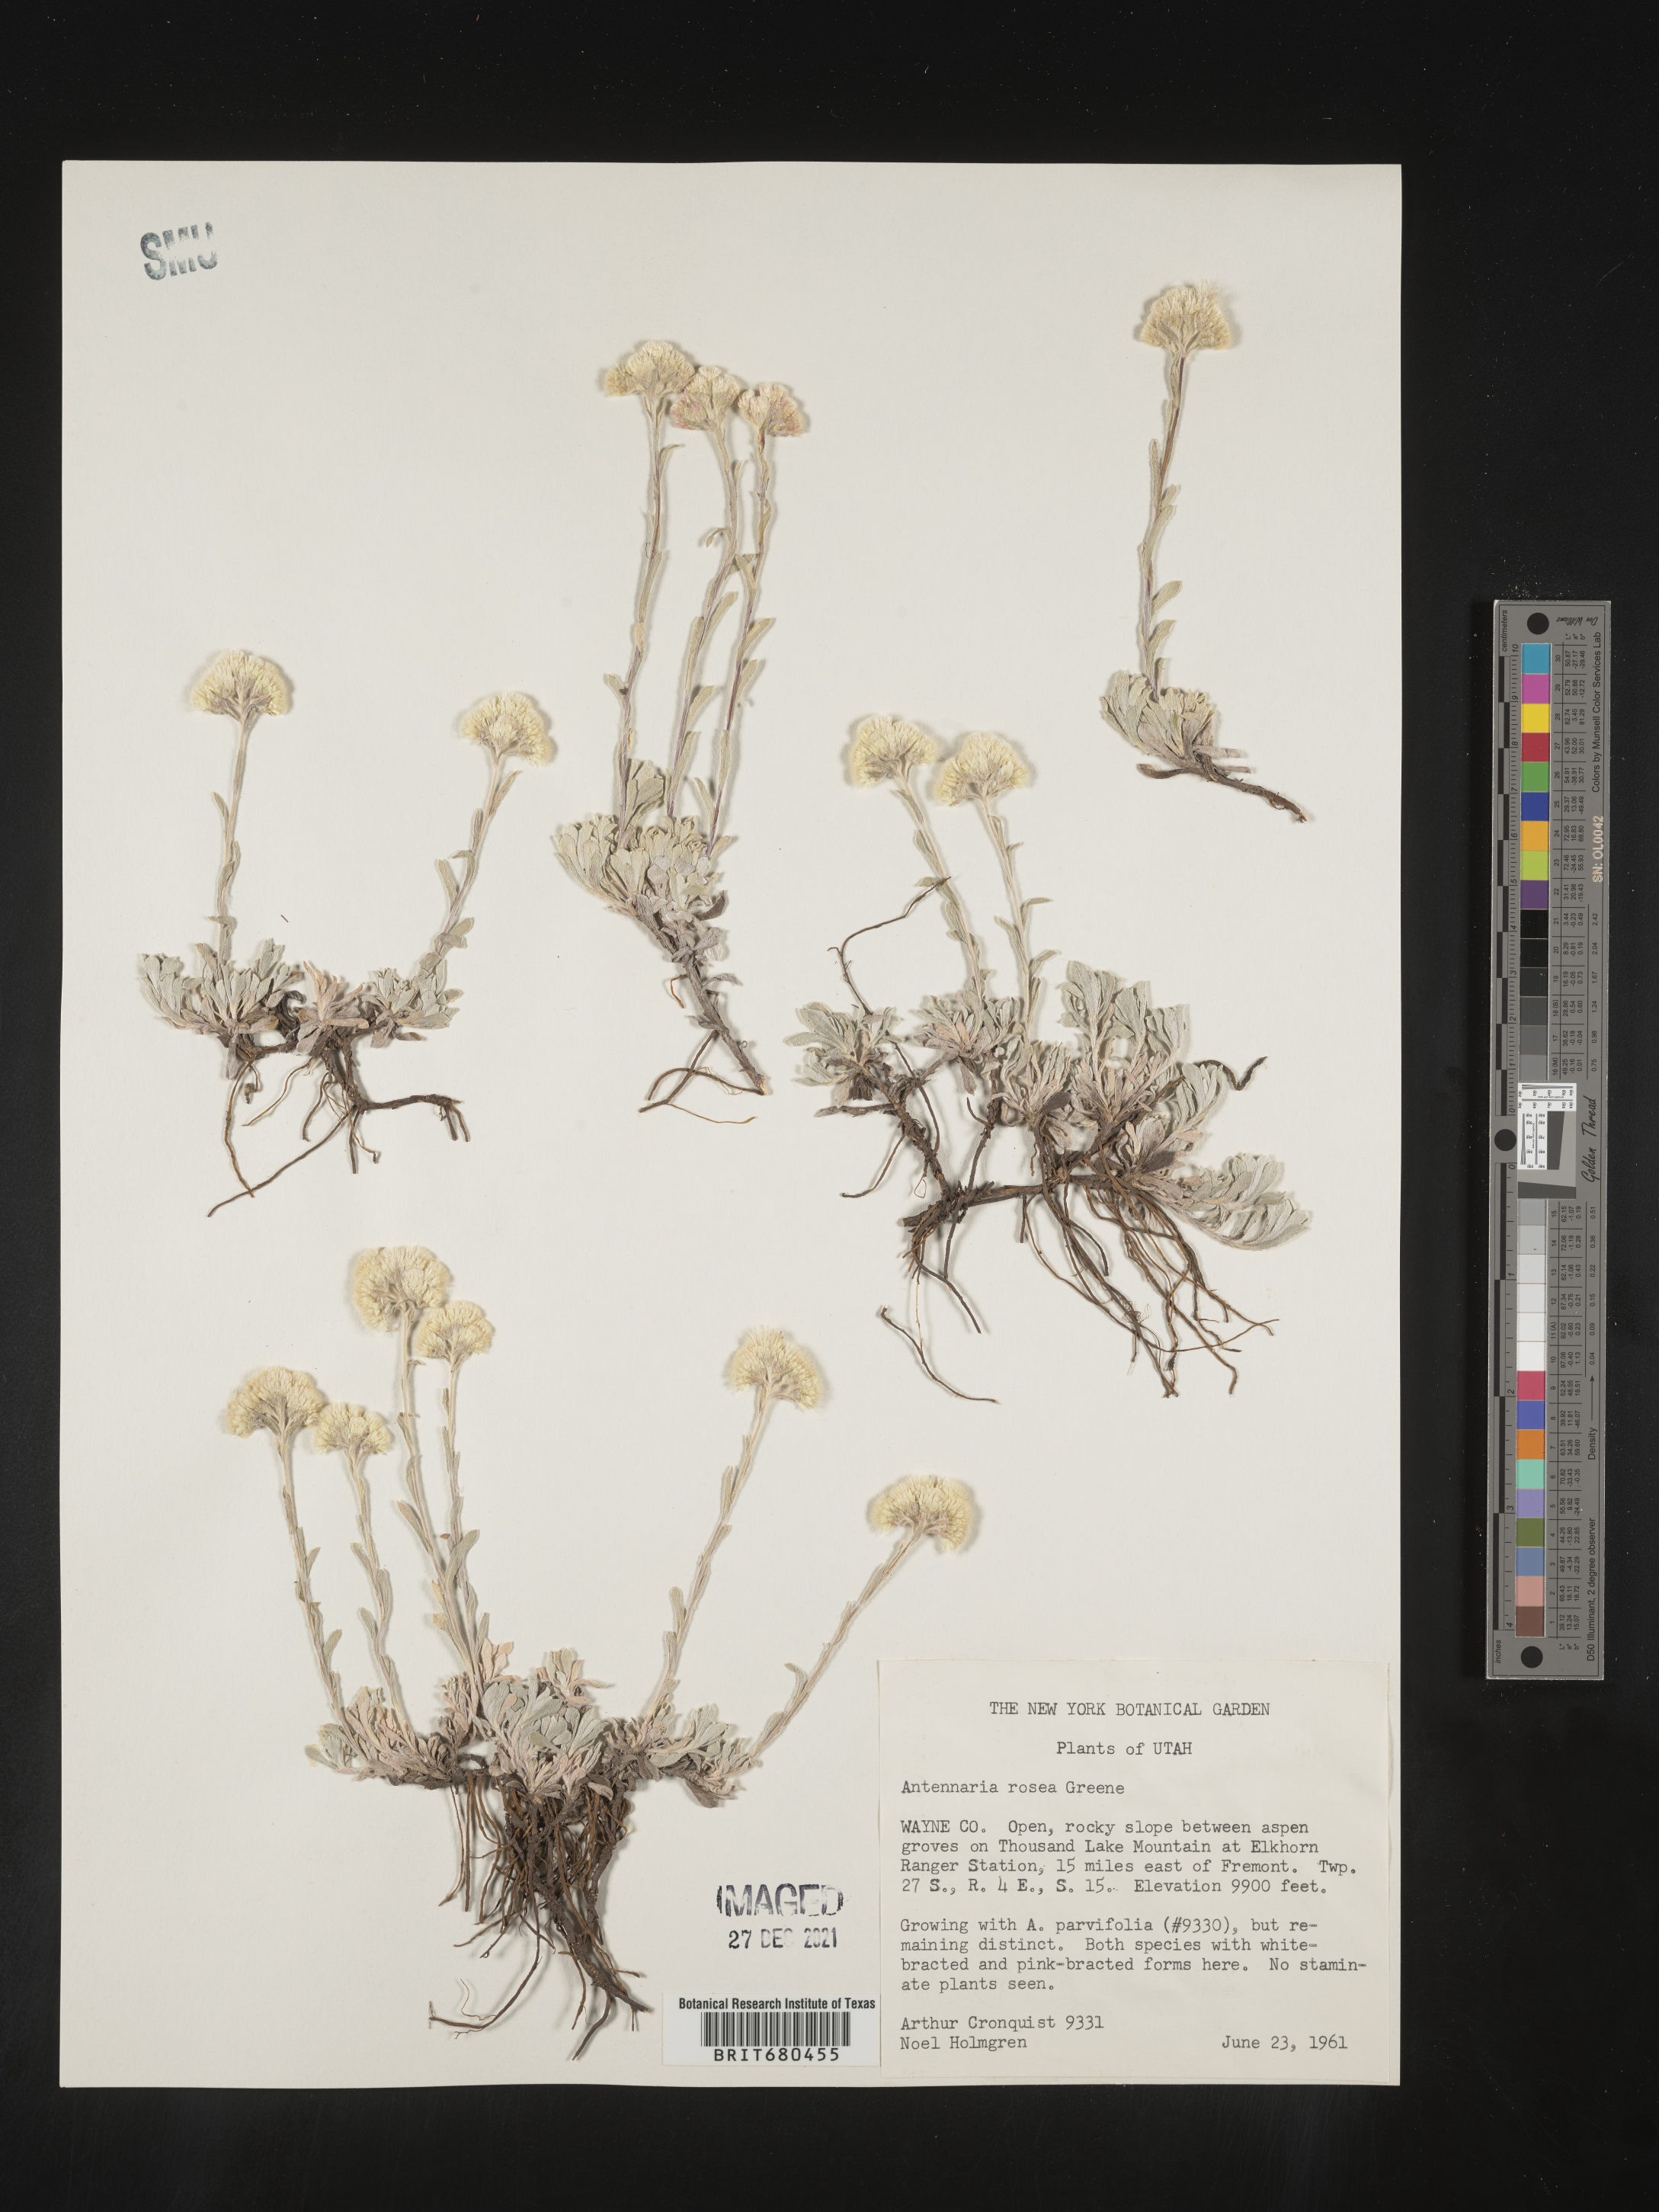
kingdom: Plantae
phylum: Tracheophyta
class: Magnoliopsida
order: Asterales
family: Asteraceae
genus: Antennaria
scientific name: Antennaria rosea
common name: Rosy pussytoes
